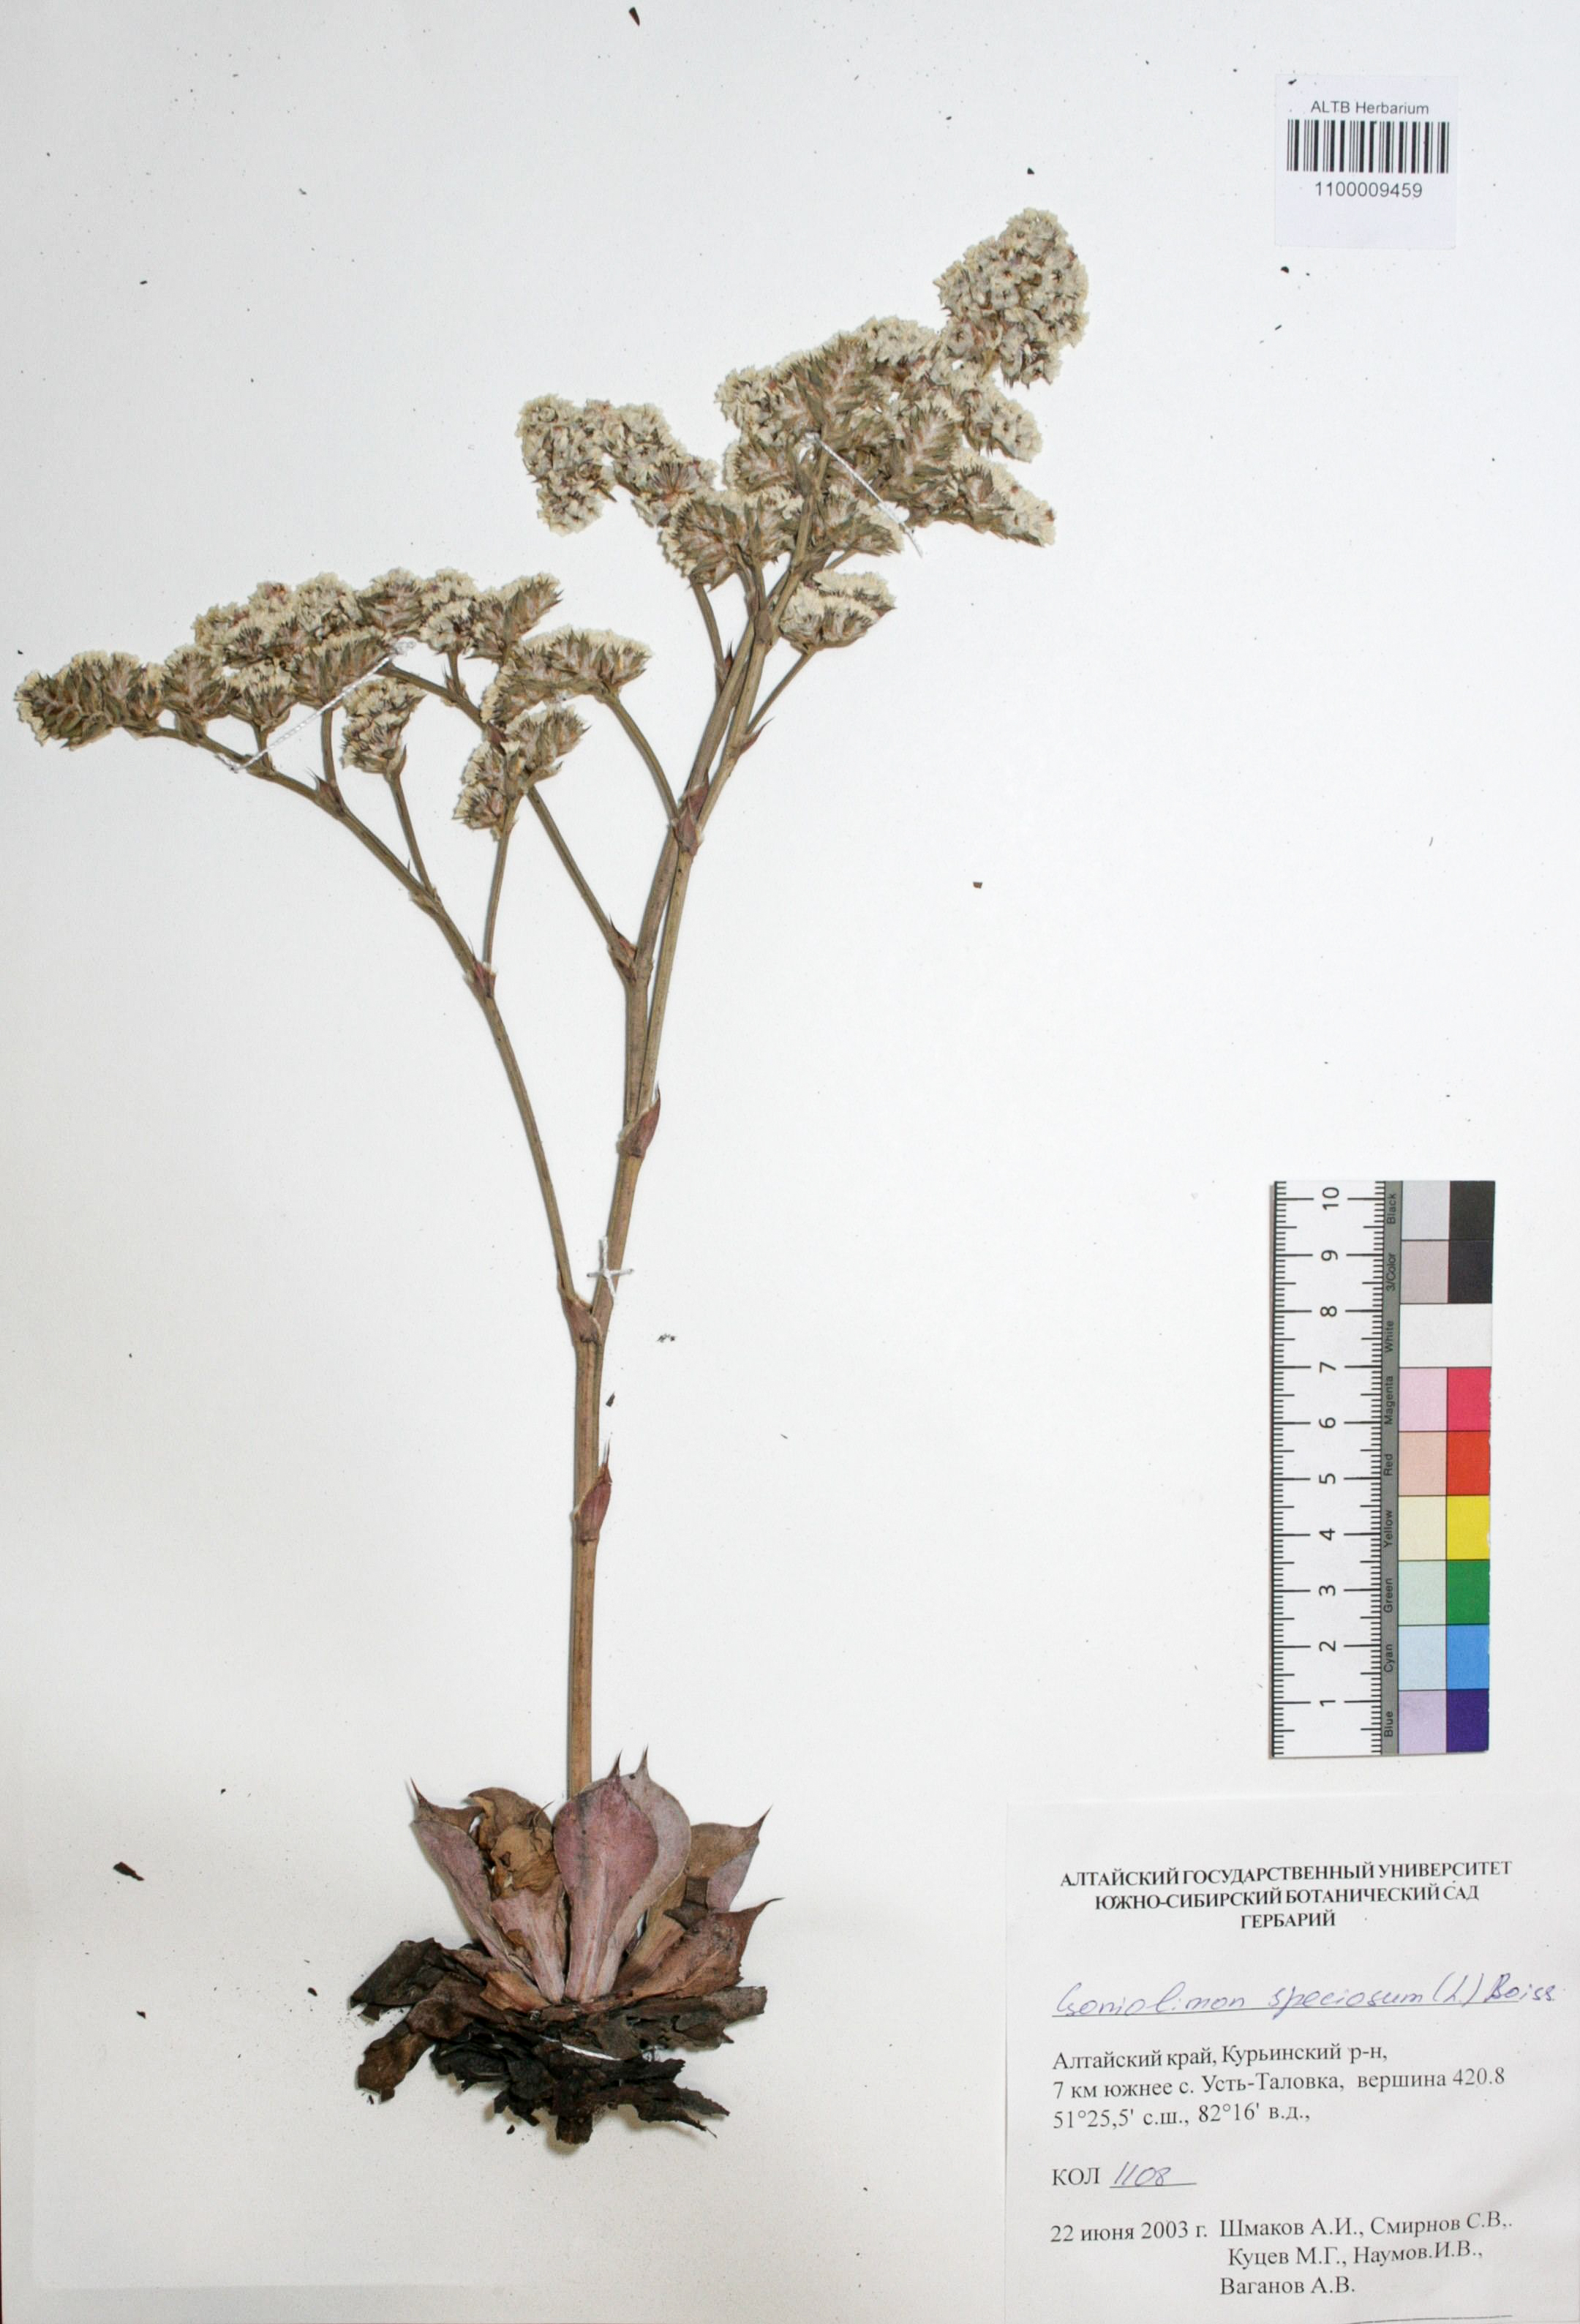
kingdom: Plantae
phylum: Tracheophyta
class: Magnoliopsida
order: Caryophyllales
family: Plumbaginaceae
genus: Goniolimon
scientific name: Goniolimon speciosum
